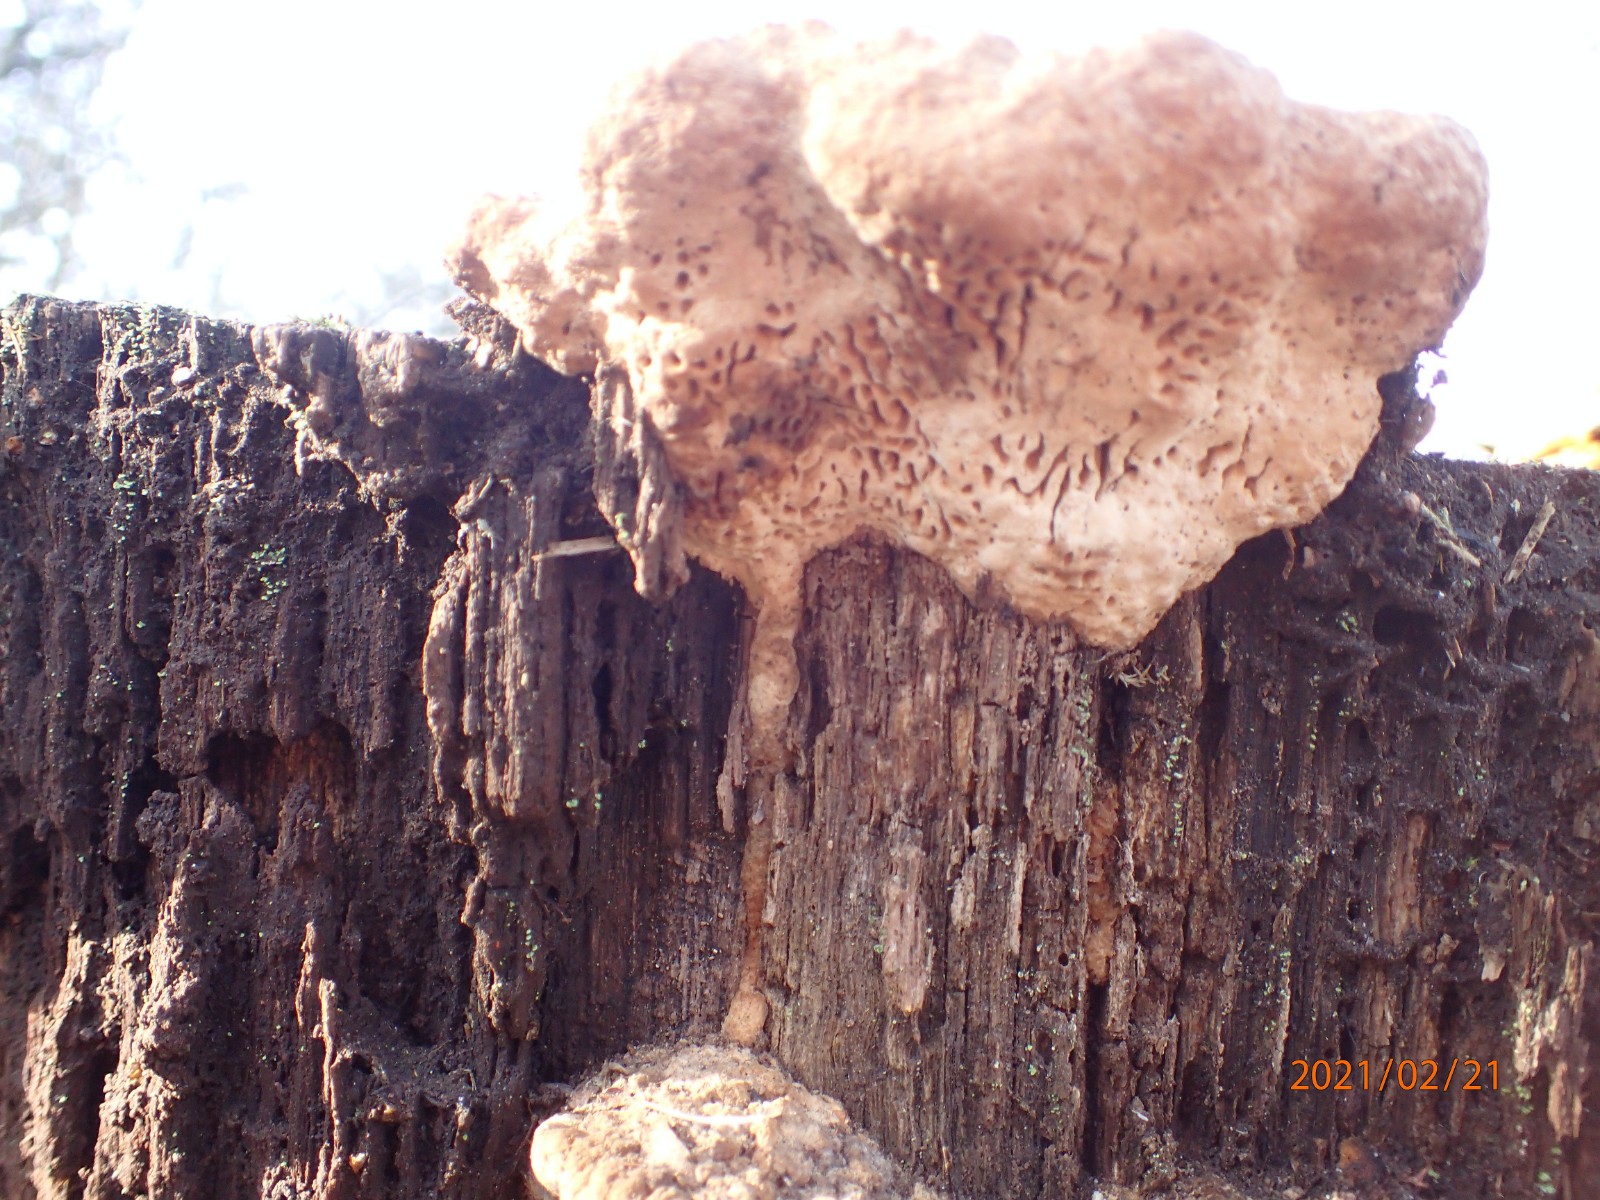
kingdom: Fungi
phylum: Basidiomycota
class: Agaricomycetes
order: Polyporales
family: Fomitopsidaceae
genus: Daedalea
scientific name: Daedalea quercina
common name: ege-labyrintsvamp
